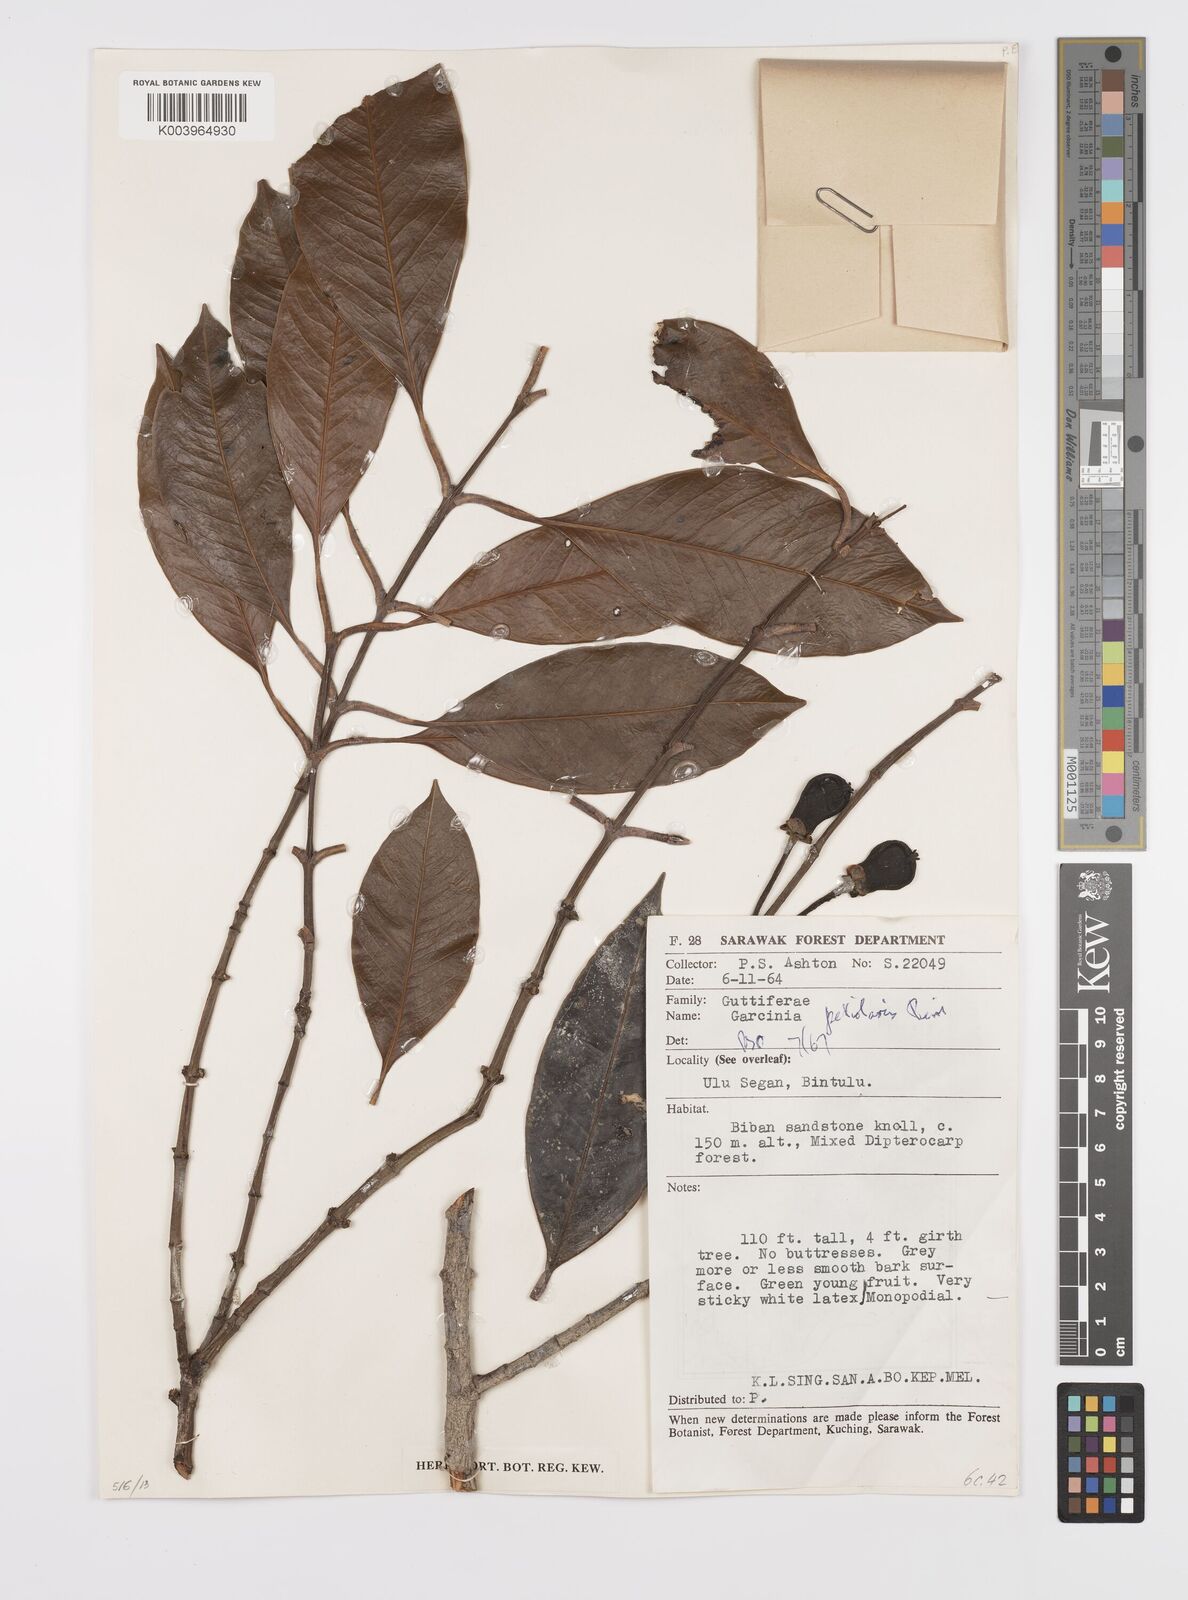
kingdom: Plantae
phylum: Tracheophyta
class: Magnoliopsida
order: Malpighiales
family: Clusiaceae
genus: Garcinia
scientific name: Garcinia petiolaris
